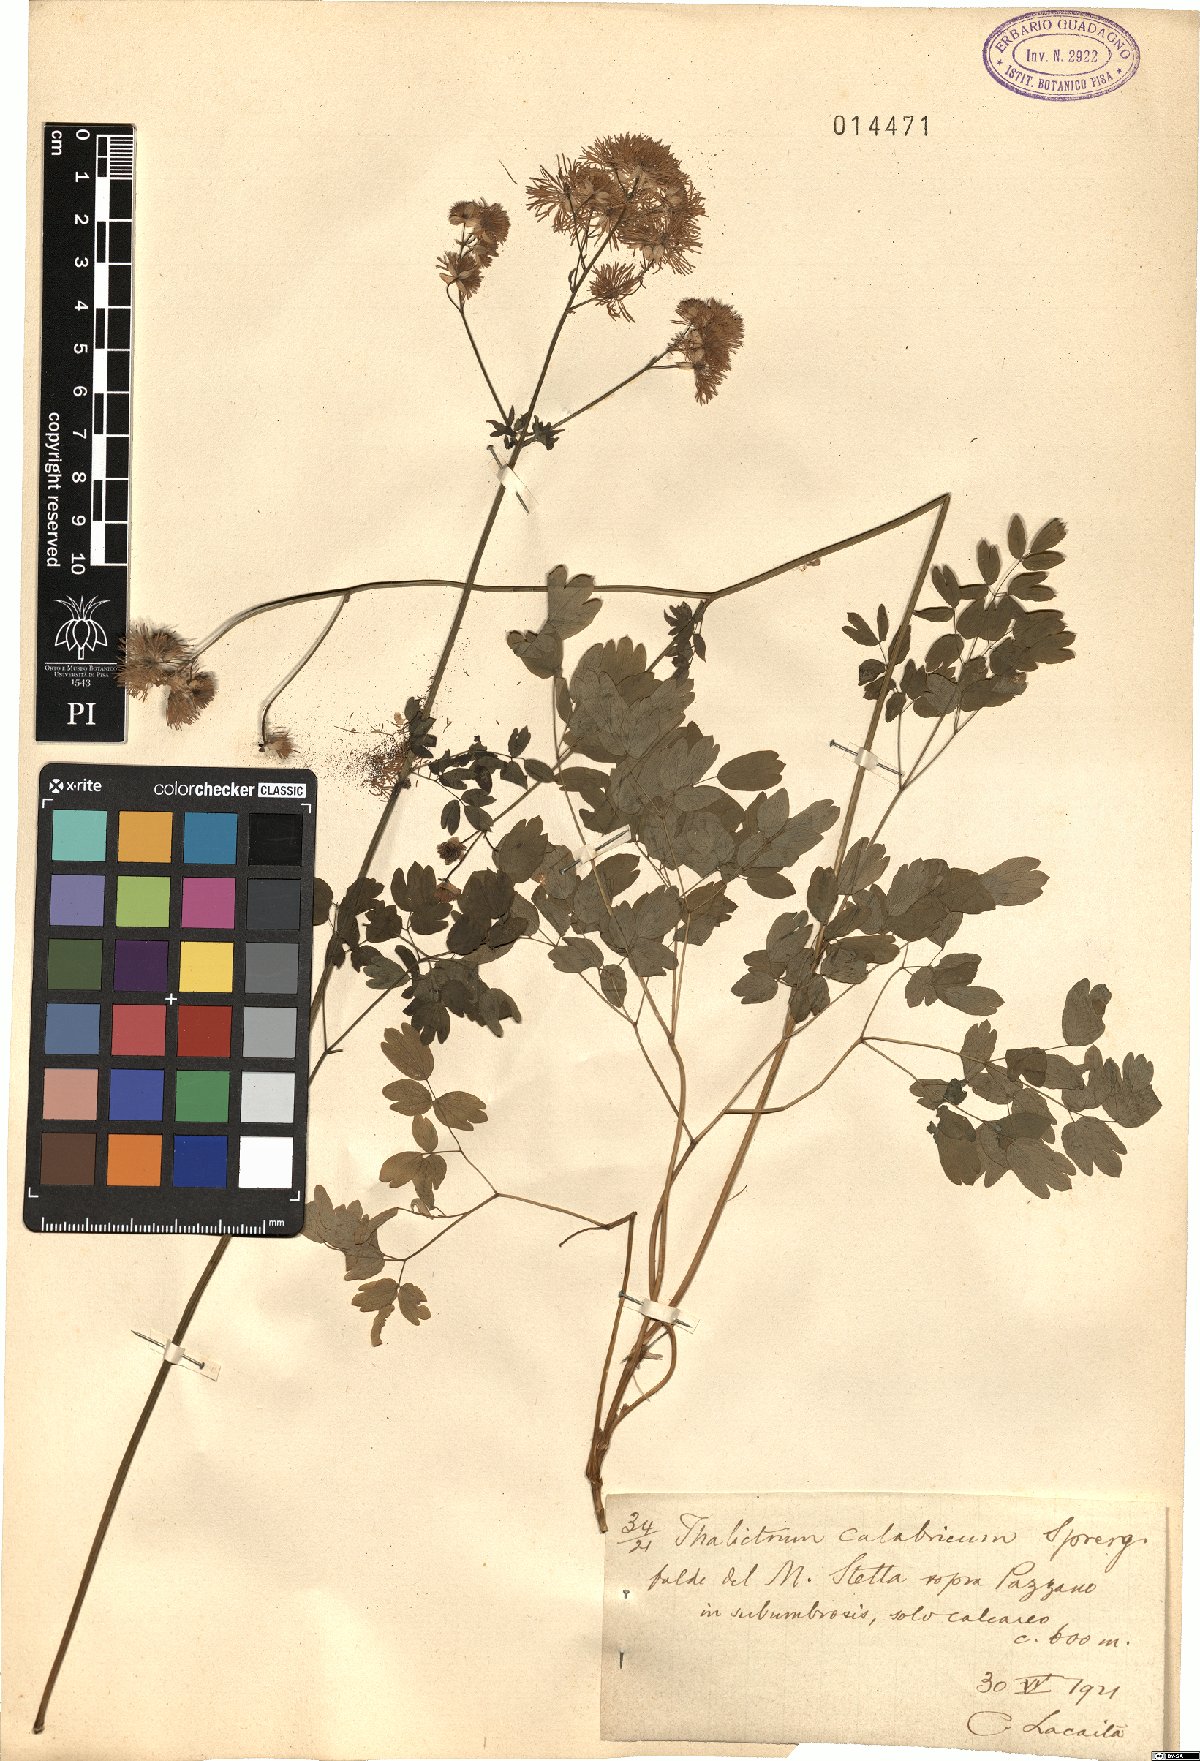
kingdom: Plantae
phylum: Tracheophyta
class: Magnoliopsida
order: Ranunculales
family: Ranunculaceae
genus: Thalictrum
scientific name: Thalictrum calabricum
